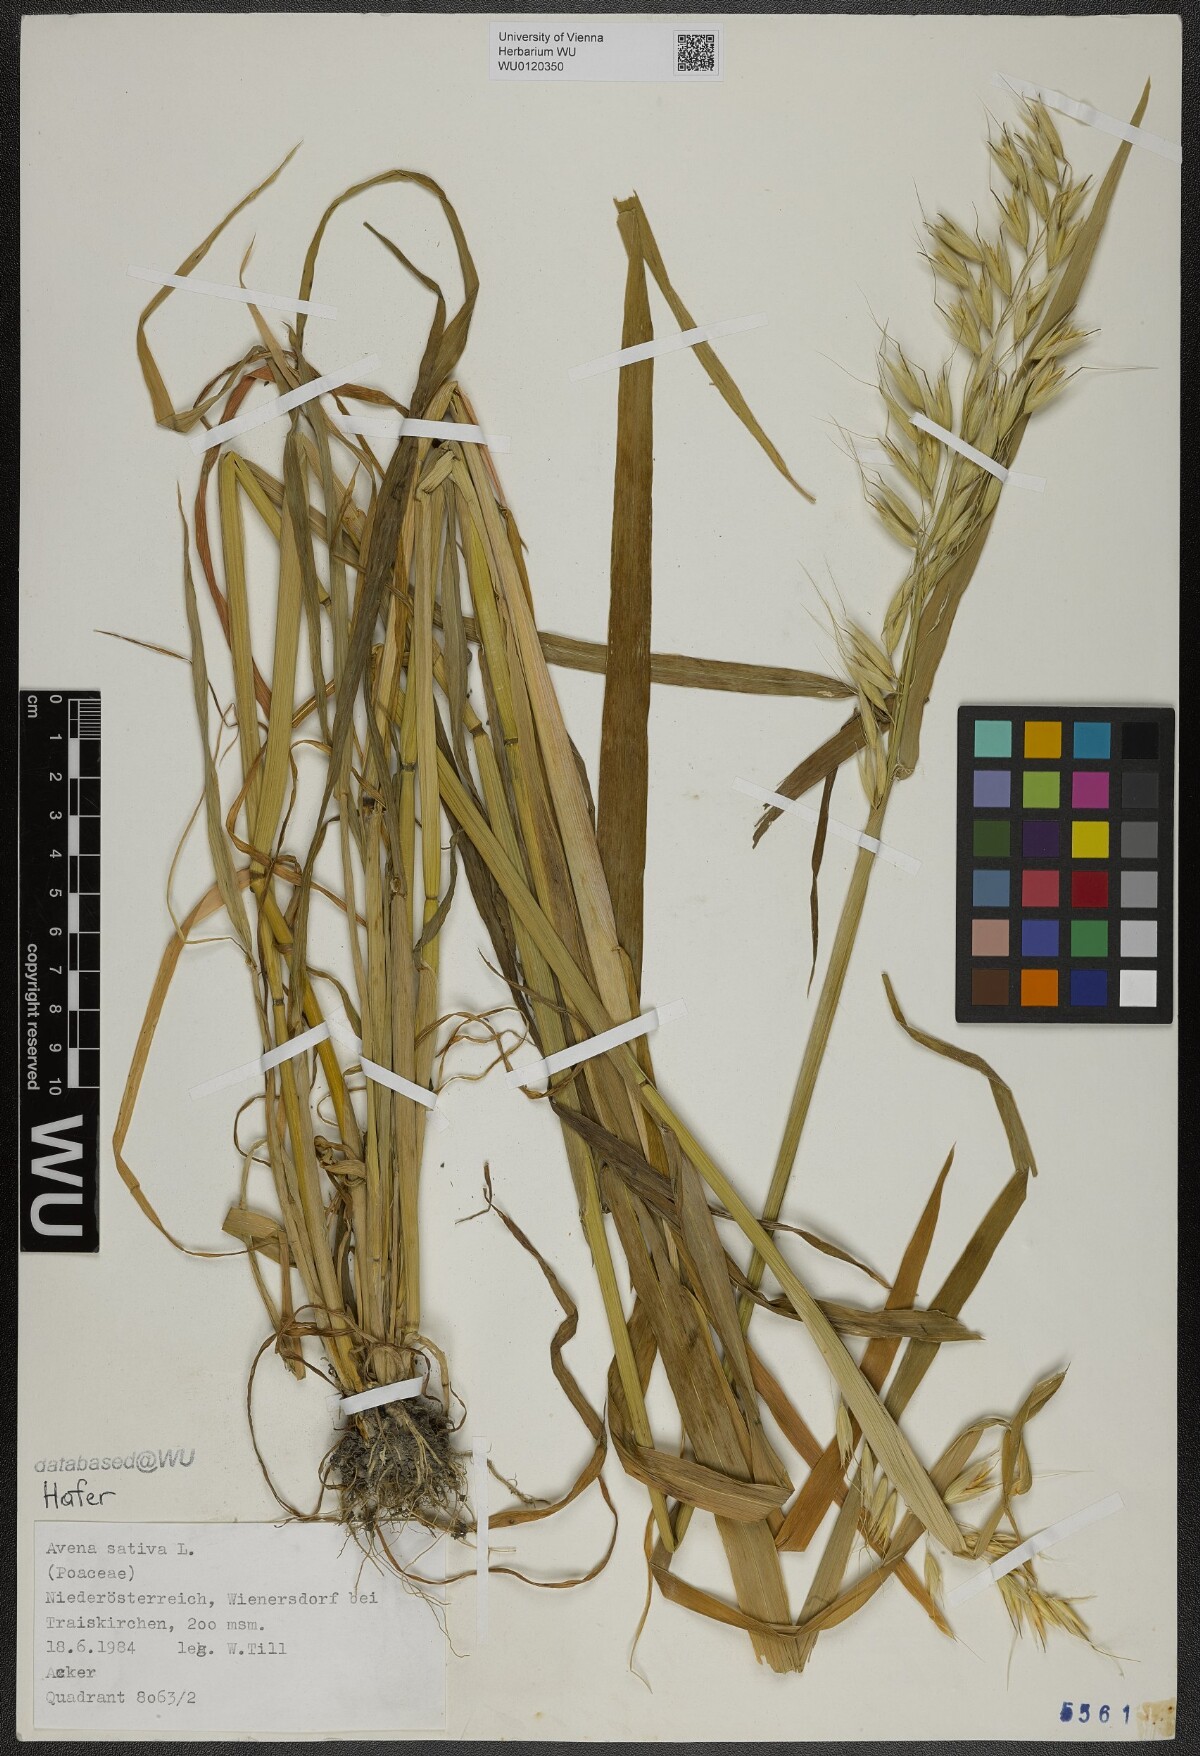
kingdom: Plantae
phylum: Tracheophyta
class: Liliopsida
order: Poales
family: Poaceae
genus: Avena
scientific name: Avena sativa
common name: Oat
